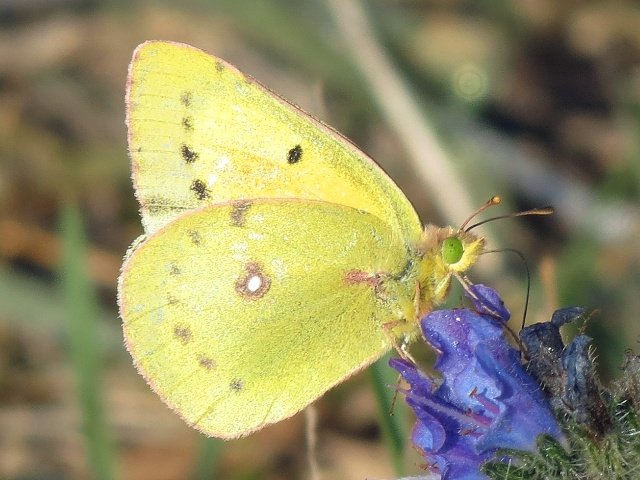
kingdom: Animalia
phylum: Arthropoda
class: Insecta
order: Lepidoptera
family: Pieridae
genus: Colias
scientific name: Colias eurytheme
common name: Orange Sulphur
